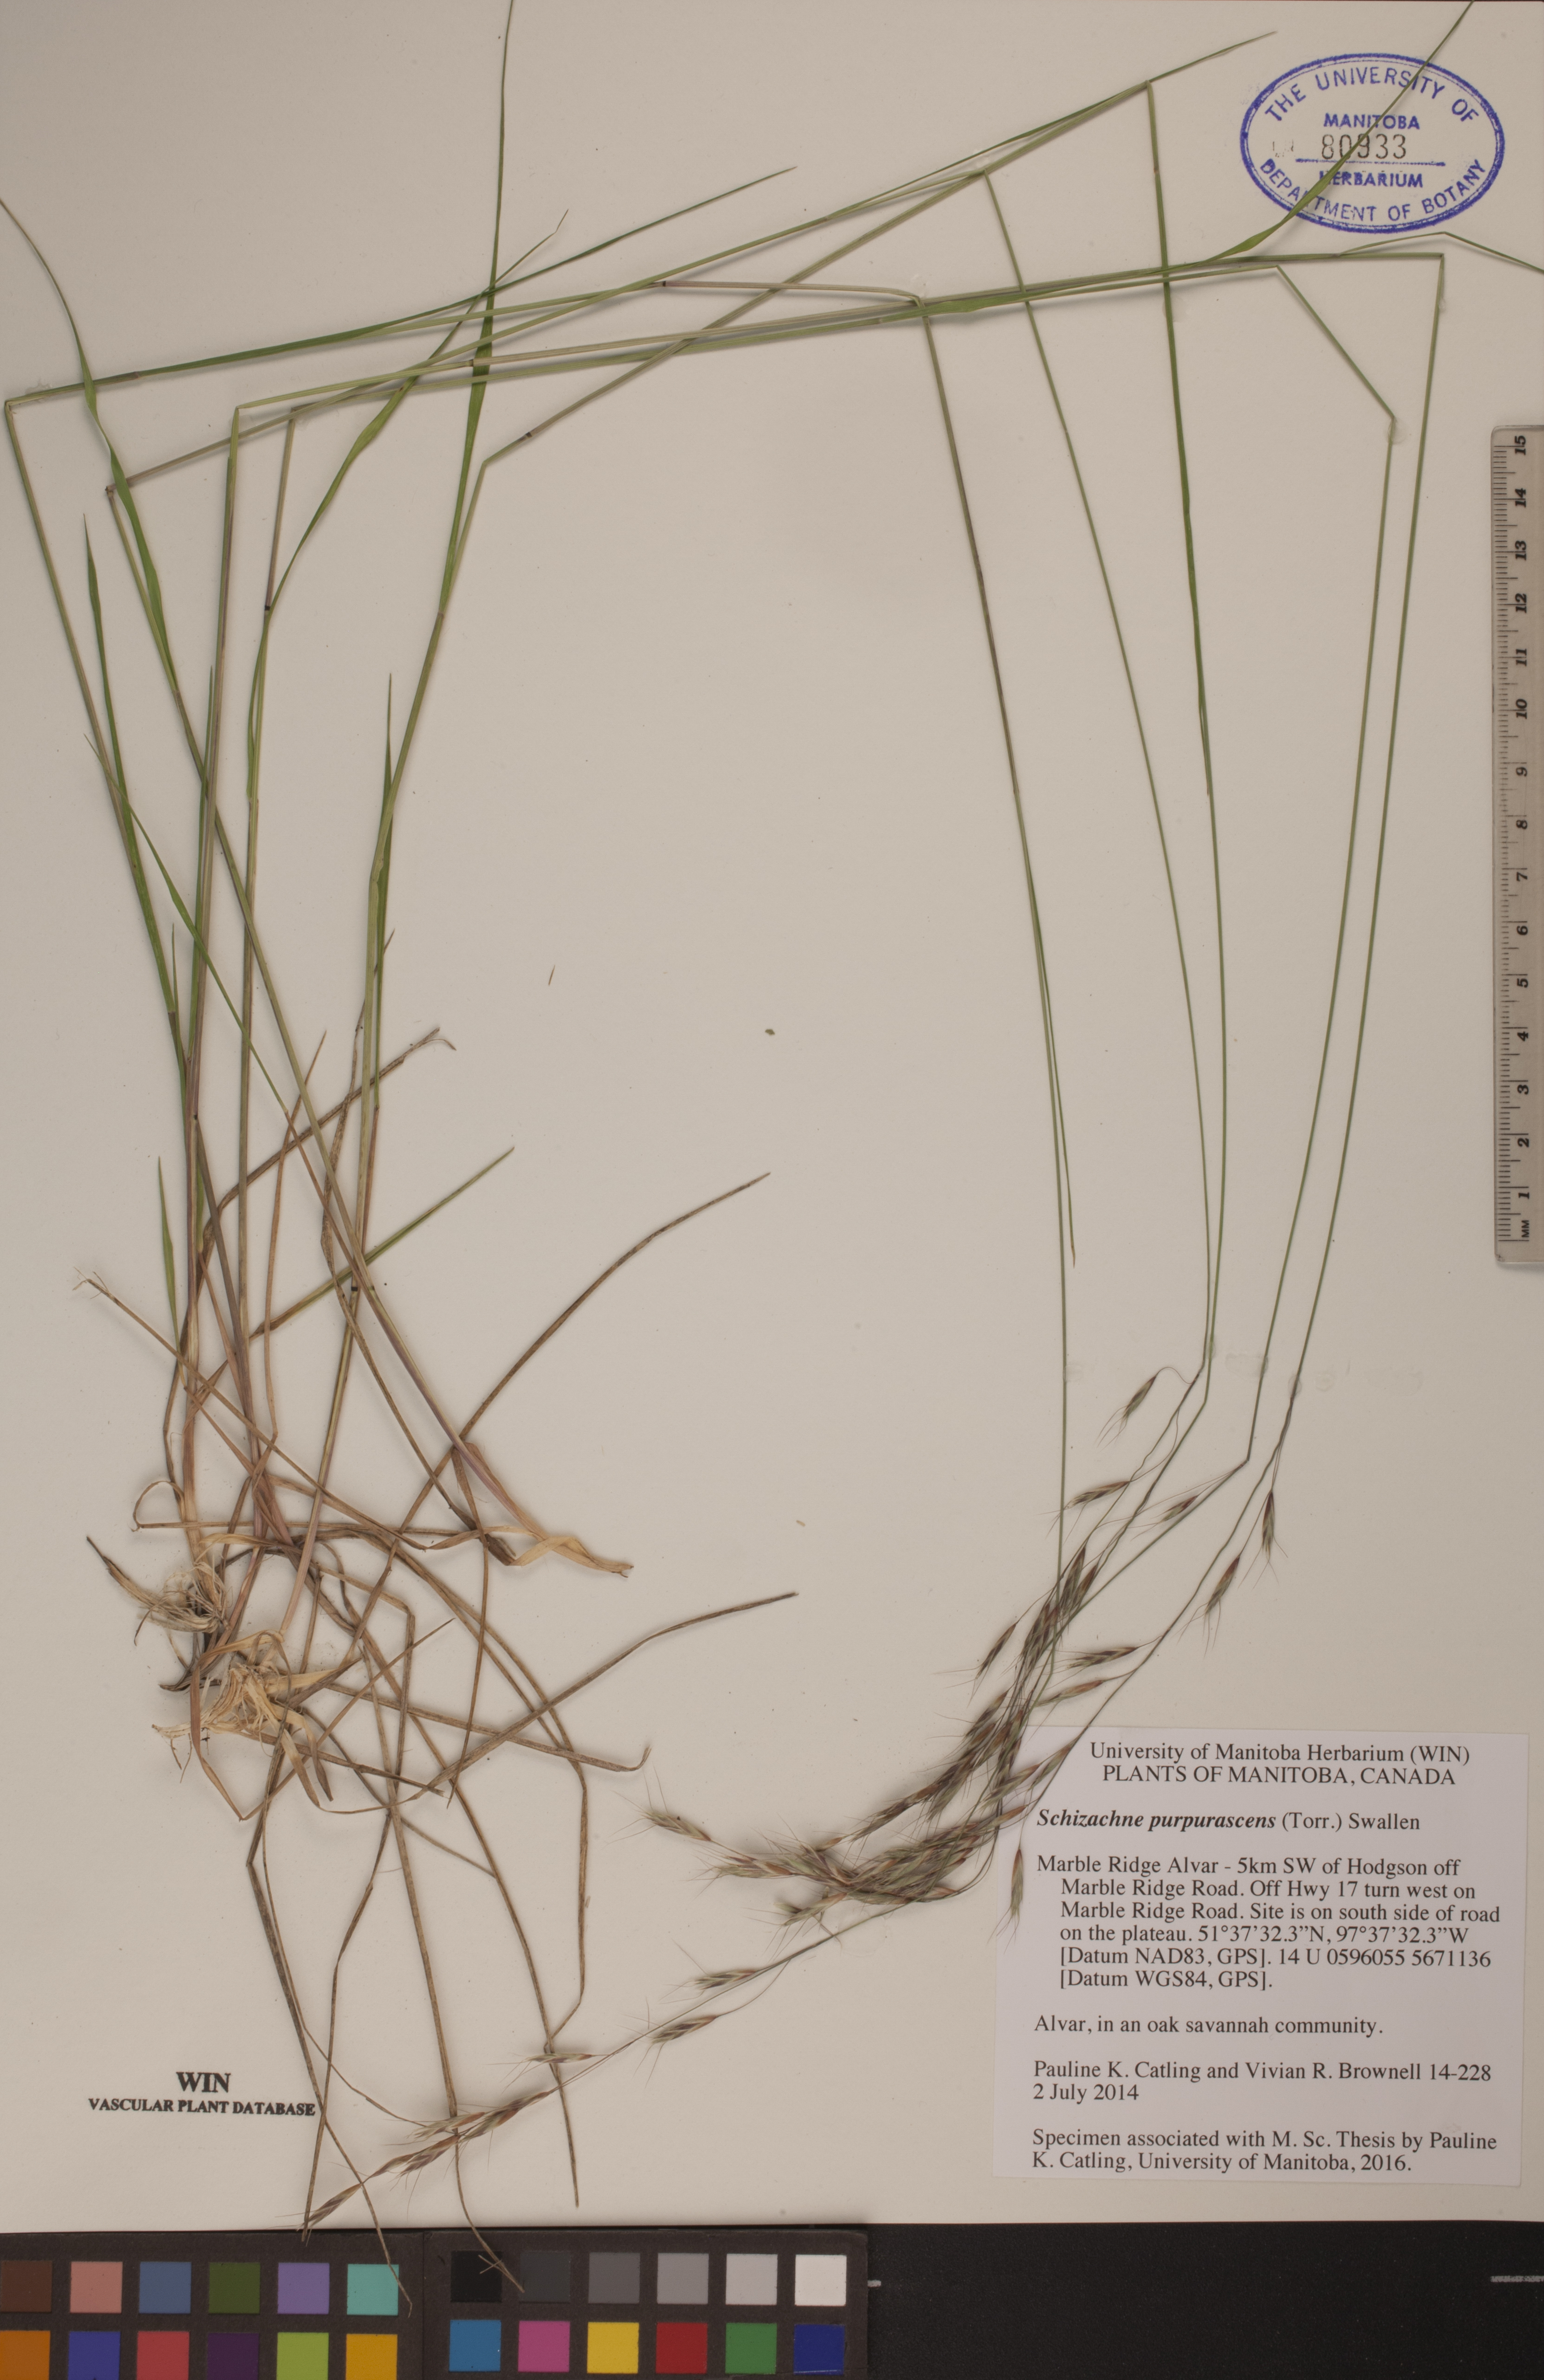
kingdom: Plantae
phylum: Tracheophyta
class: Liliopsida
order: Poales
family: Poaceae
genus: Schizachne
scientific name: Schizachne purpurascens
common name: False melic
